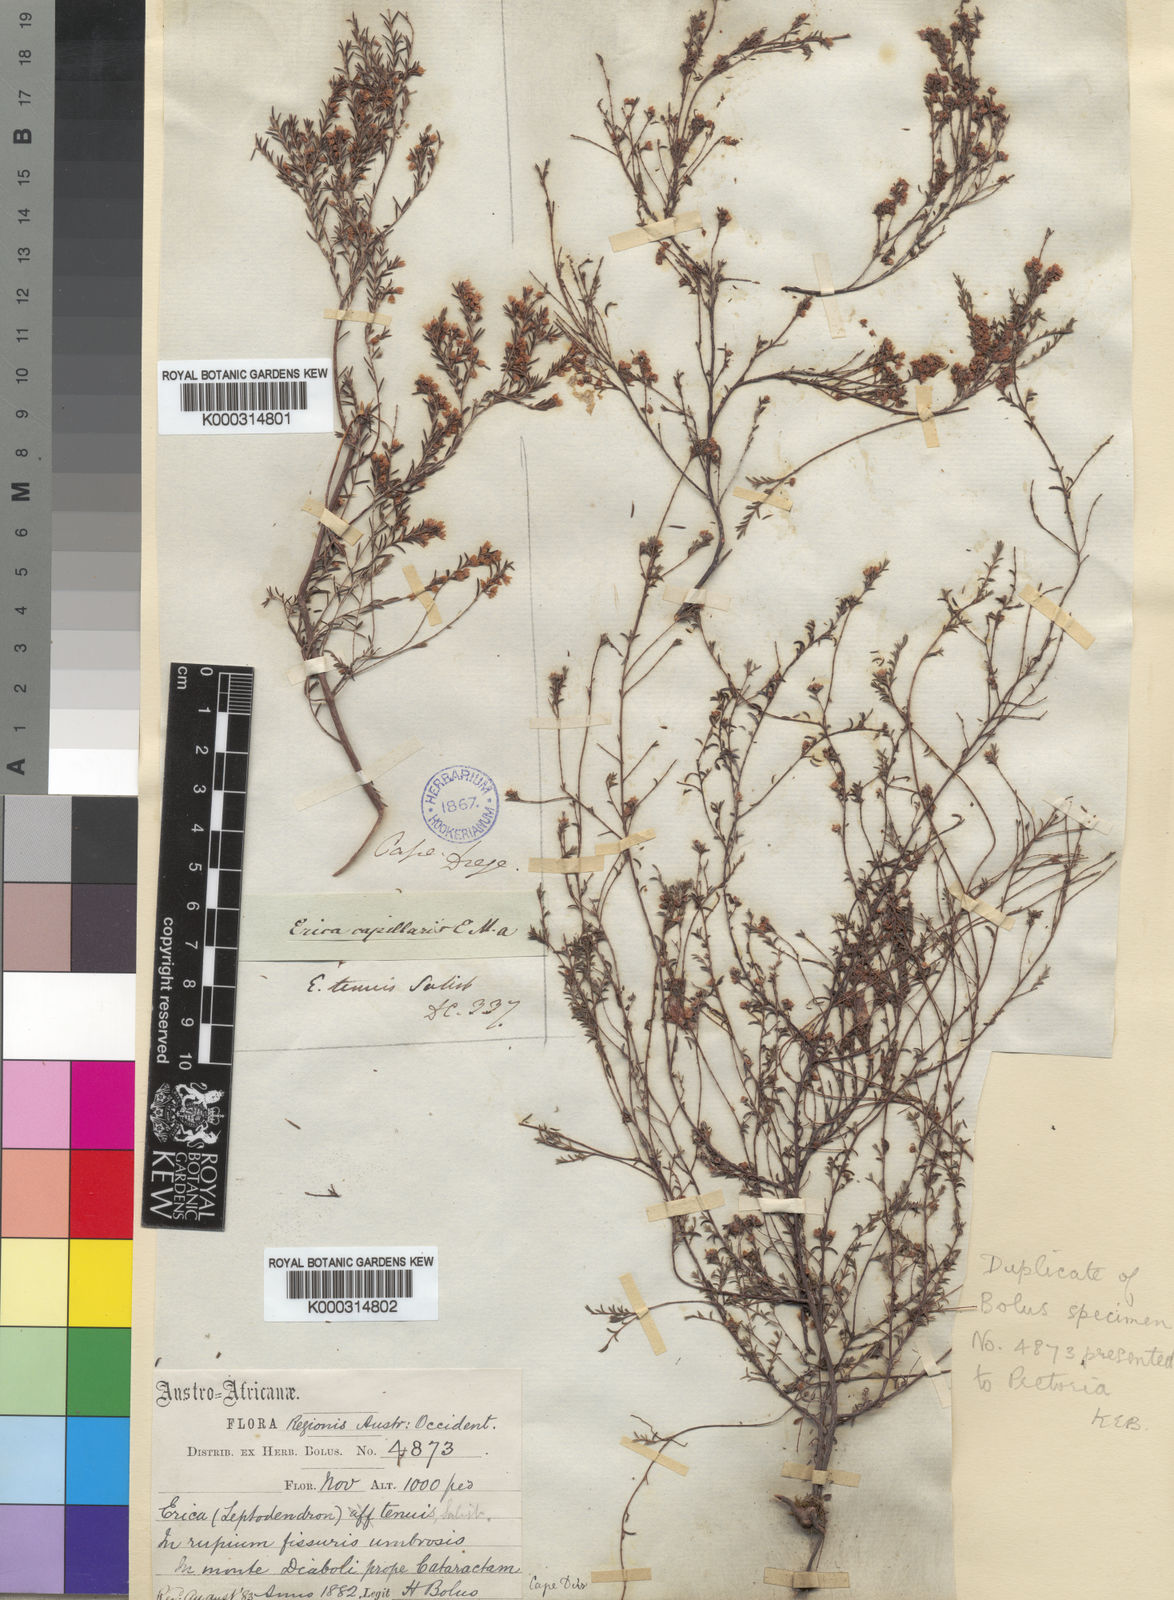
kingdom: Plantae
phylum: Tracheophyta
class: Magnoliopsida
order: Ericales
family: Ericaceae
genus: Erica
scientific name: Erica
